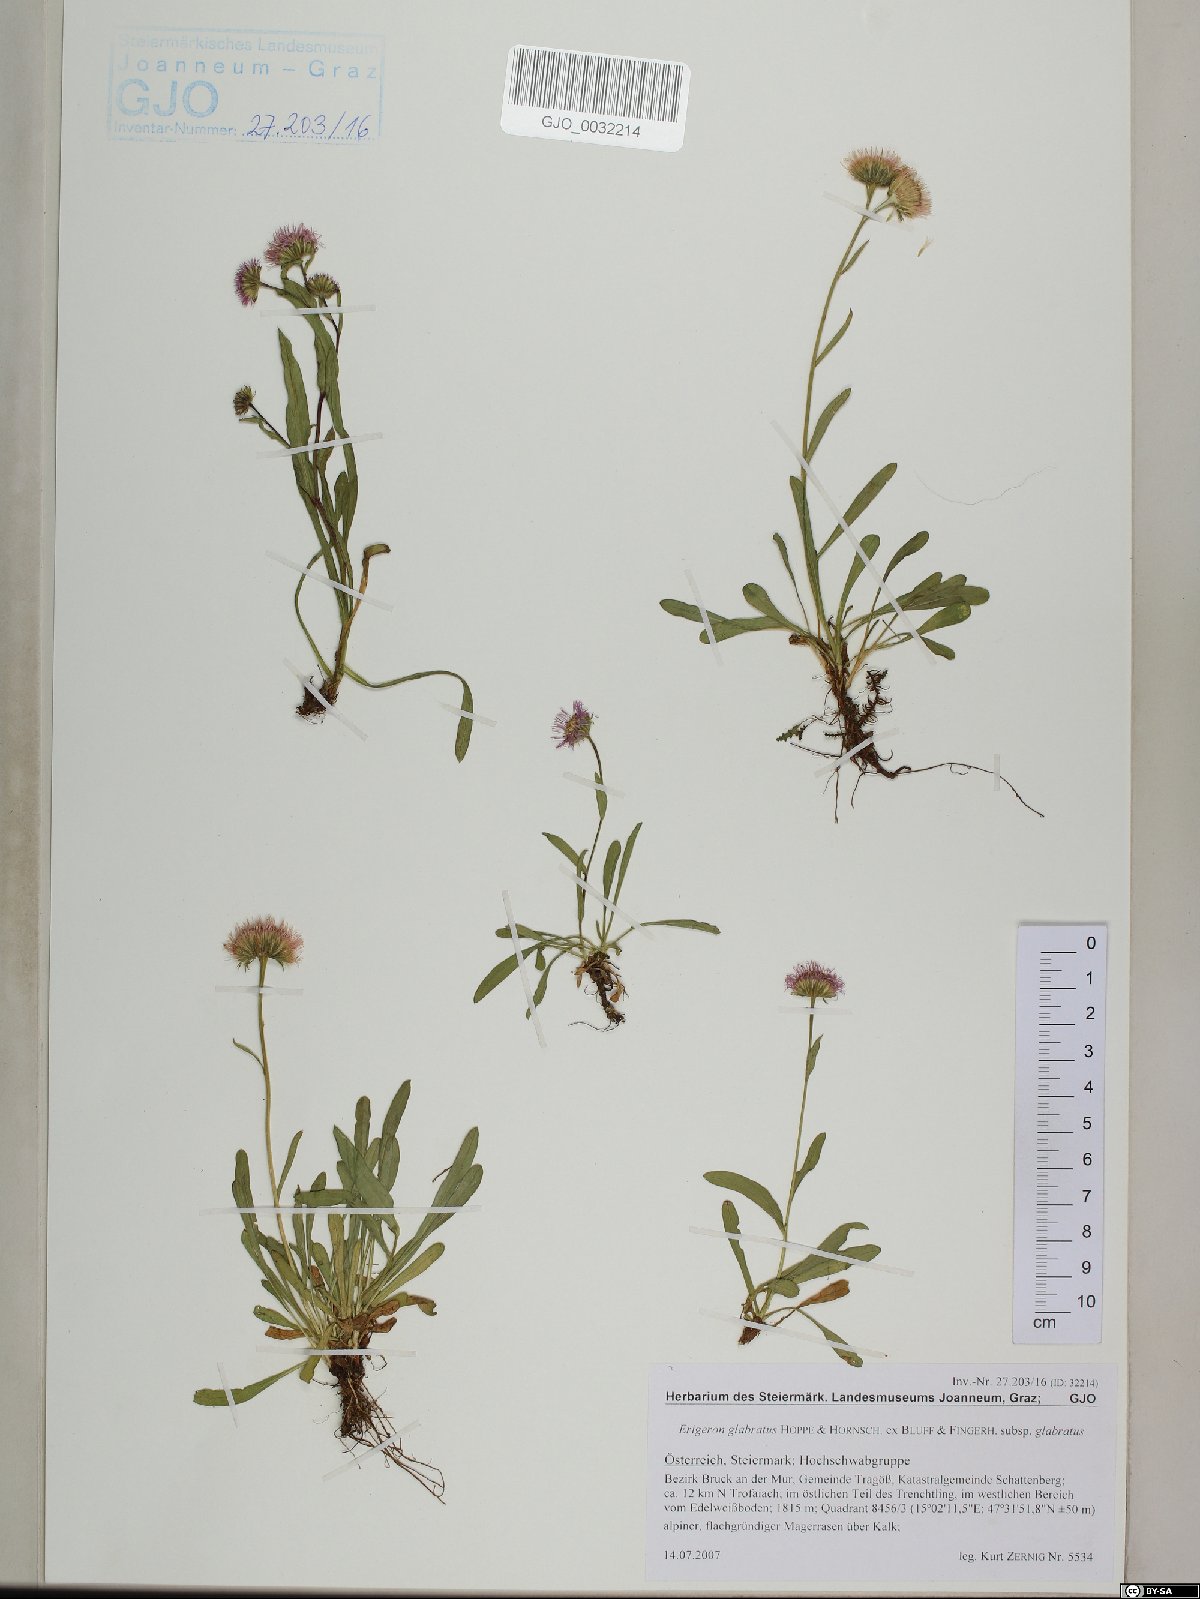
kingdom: Plantae
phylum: Tracheophyta
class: Magnoliopsida
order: Asterales
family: Asteraceae
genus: Erigeron
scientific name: Erigeron glabratus
